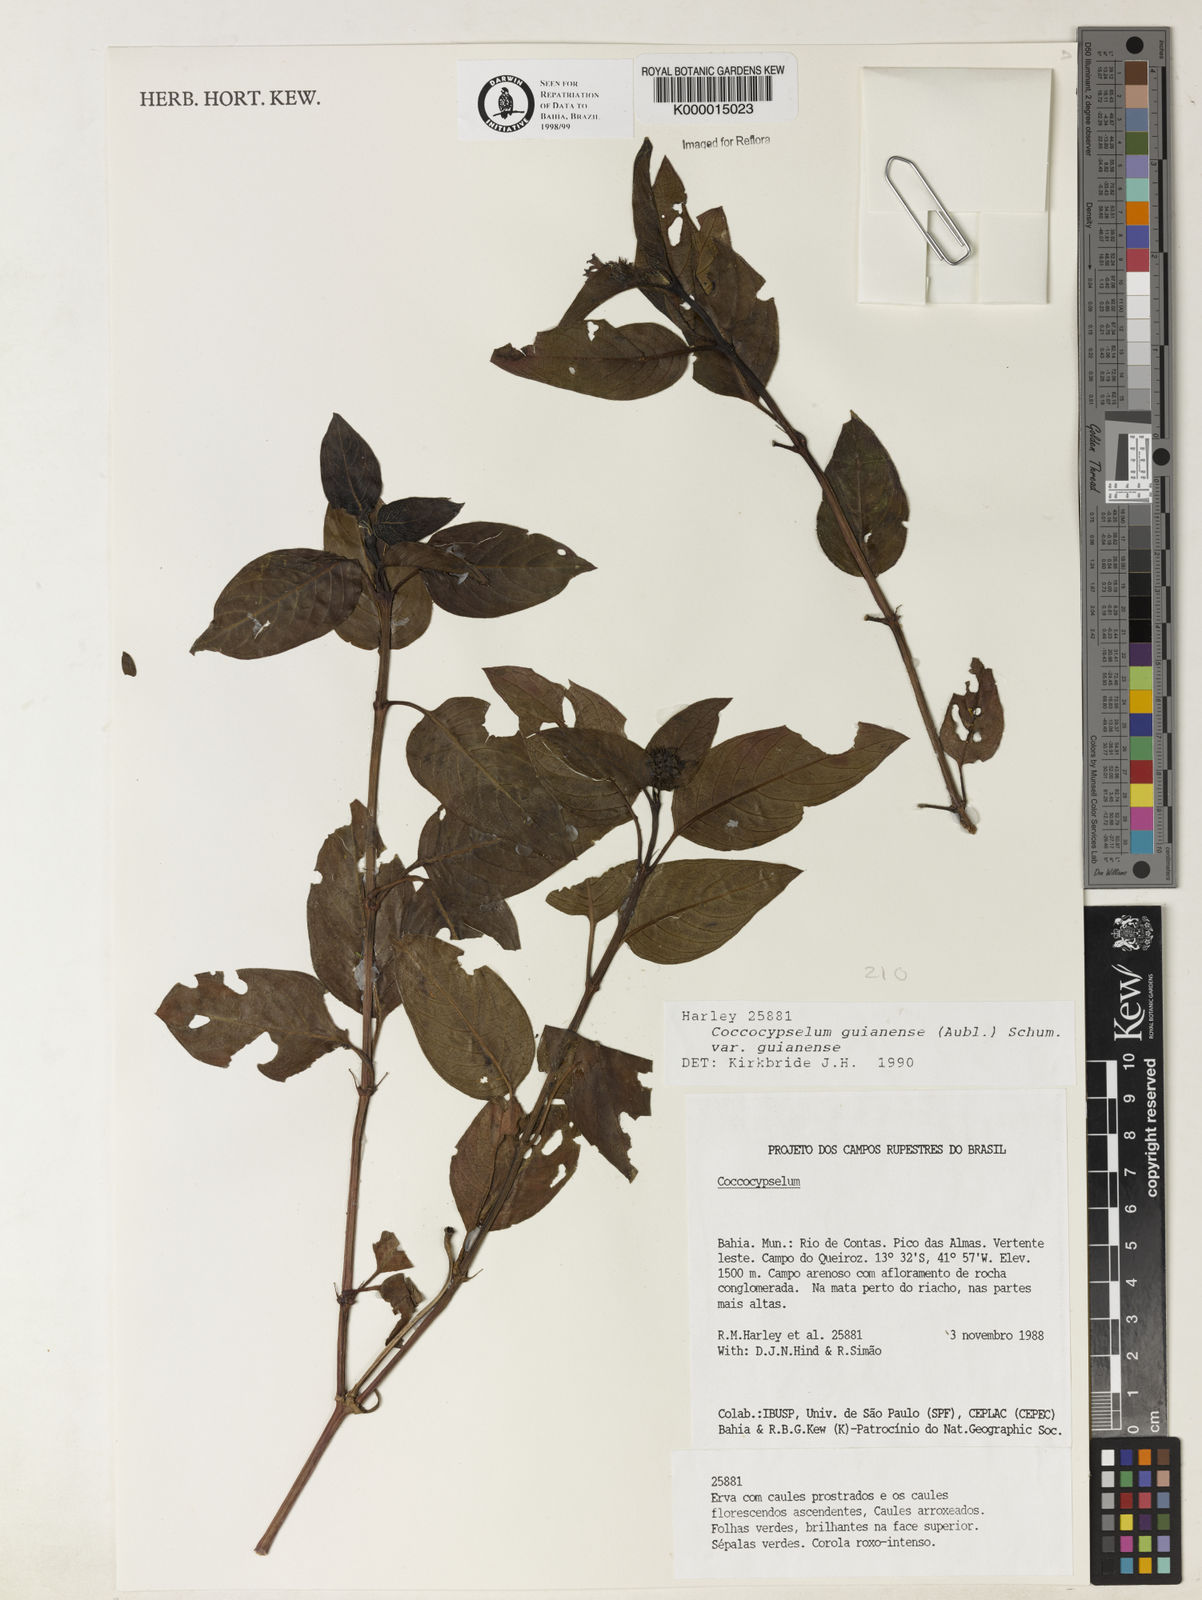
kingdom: Plantae
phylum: Tracheophyta
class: Magnoliopsida
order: Gentianales
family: Rubiaceae
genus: Coccocypselum
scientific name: Coccocypselum guianense
